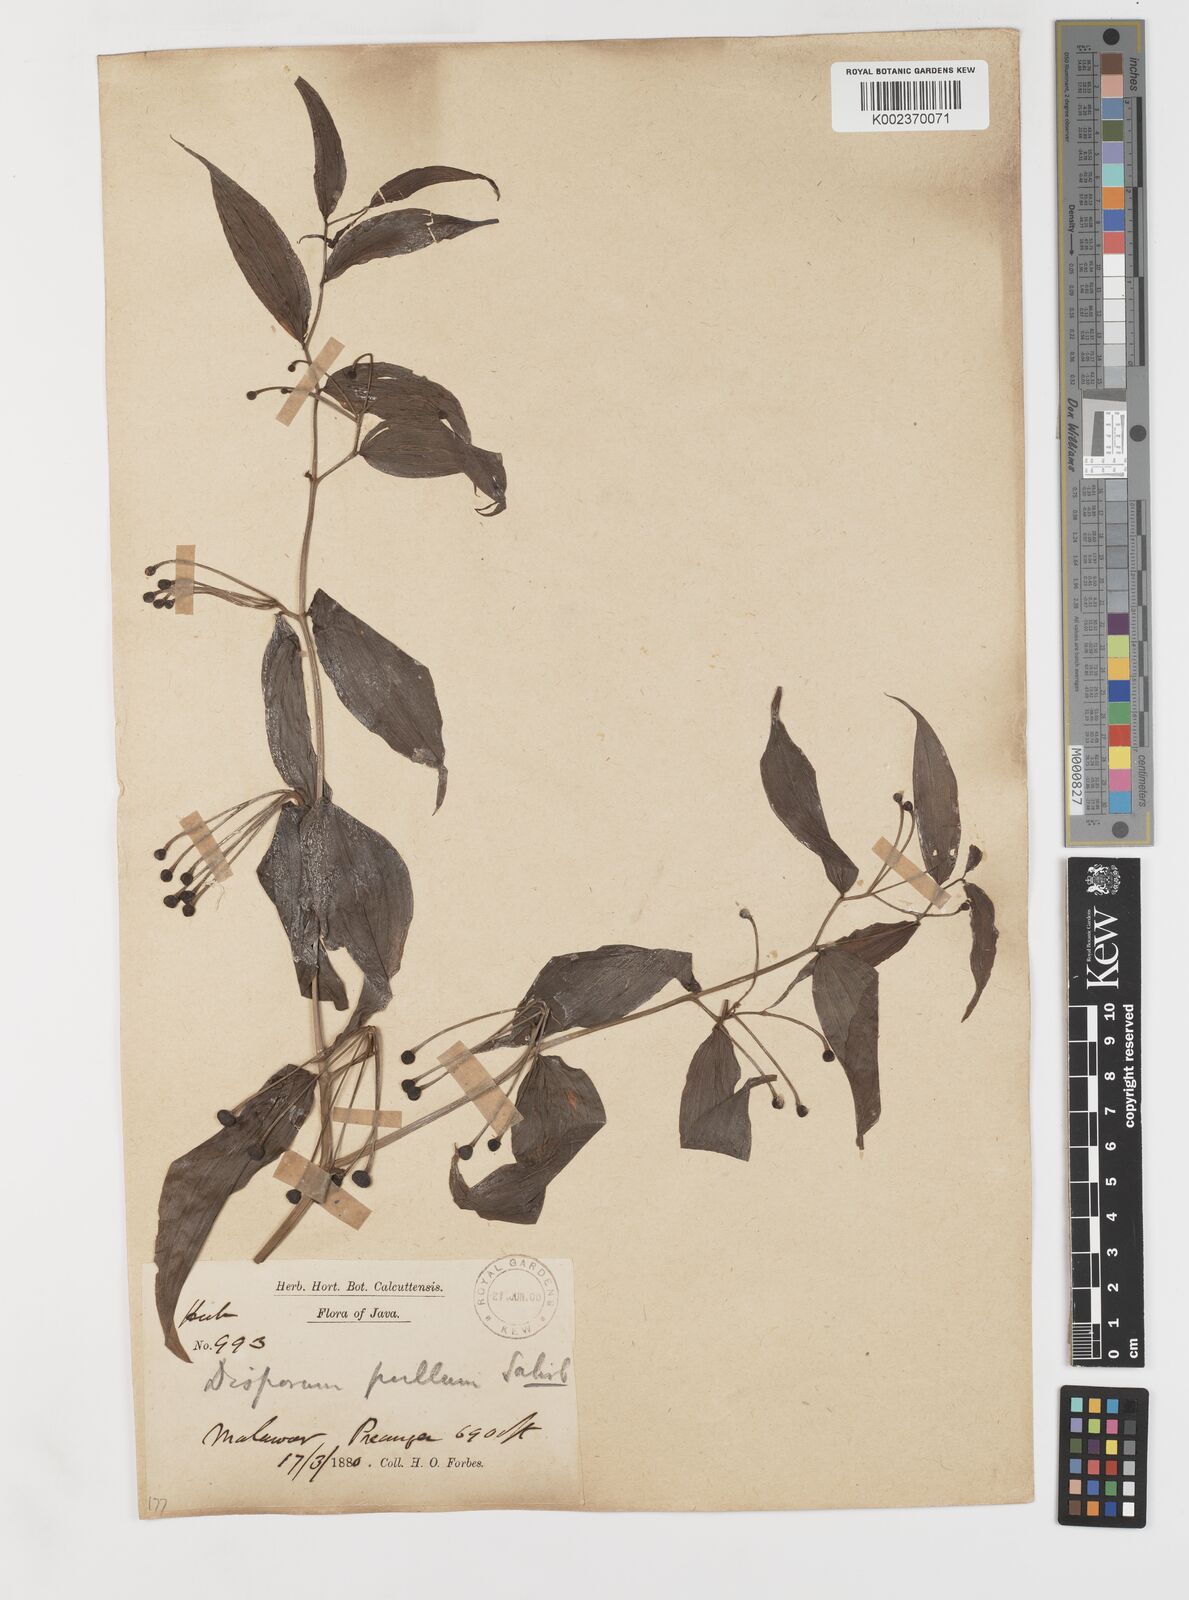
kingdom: Plantae
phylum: Tracheophyta
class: Liliopsida
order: Liliales
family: Colchicaceae
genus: Disporum
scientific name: Disporum cantoniense
